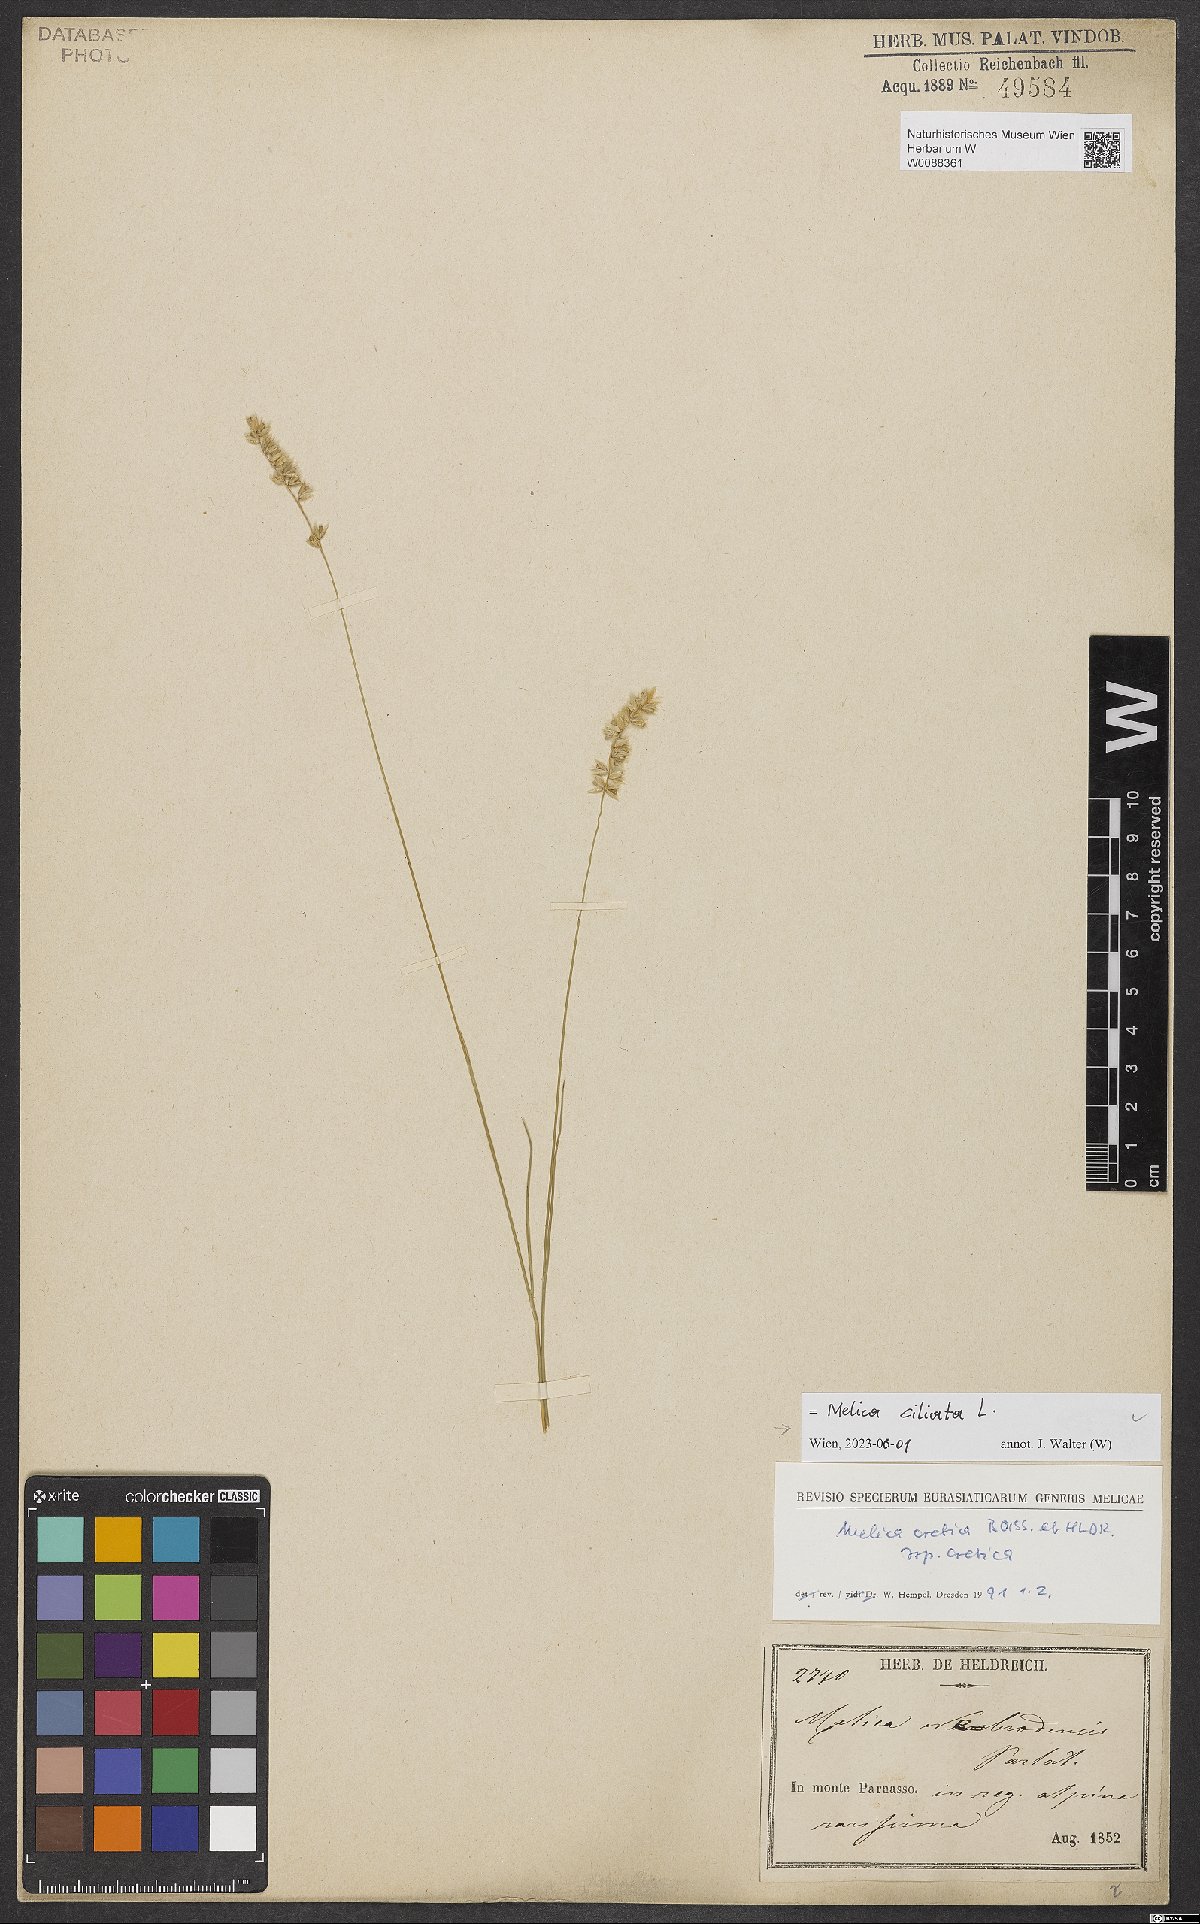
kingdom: Plantae
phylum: Tracheophyta
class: Liliopsida
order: Poales
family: Poaceae
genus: Melica
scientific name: Melica ciliata
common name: Hairy melicgrass
